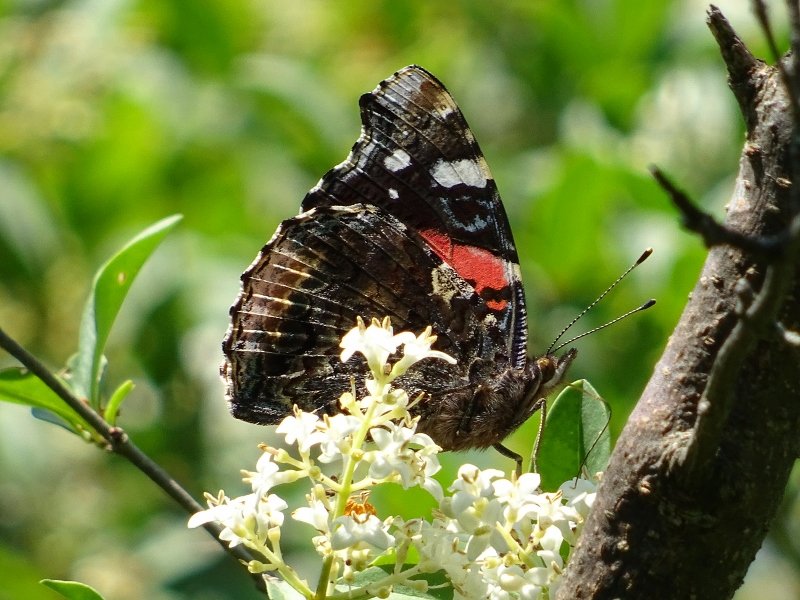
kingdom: Animalia
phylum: Arthropoda
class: Insecta
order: Lepidoptera
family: Nymphalidae
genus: Vanessa
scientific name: Vanessa atalanta
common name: Red Admiral
